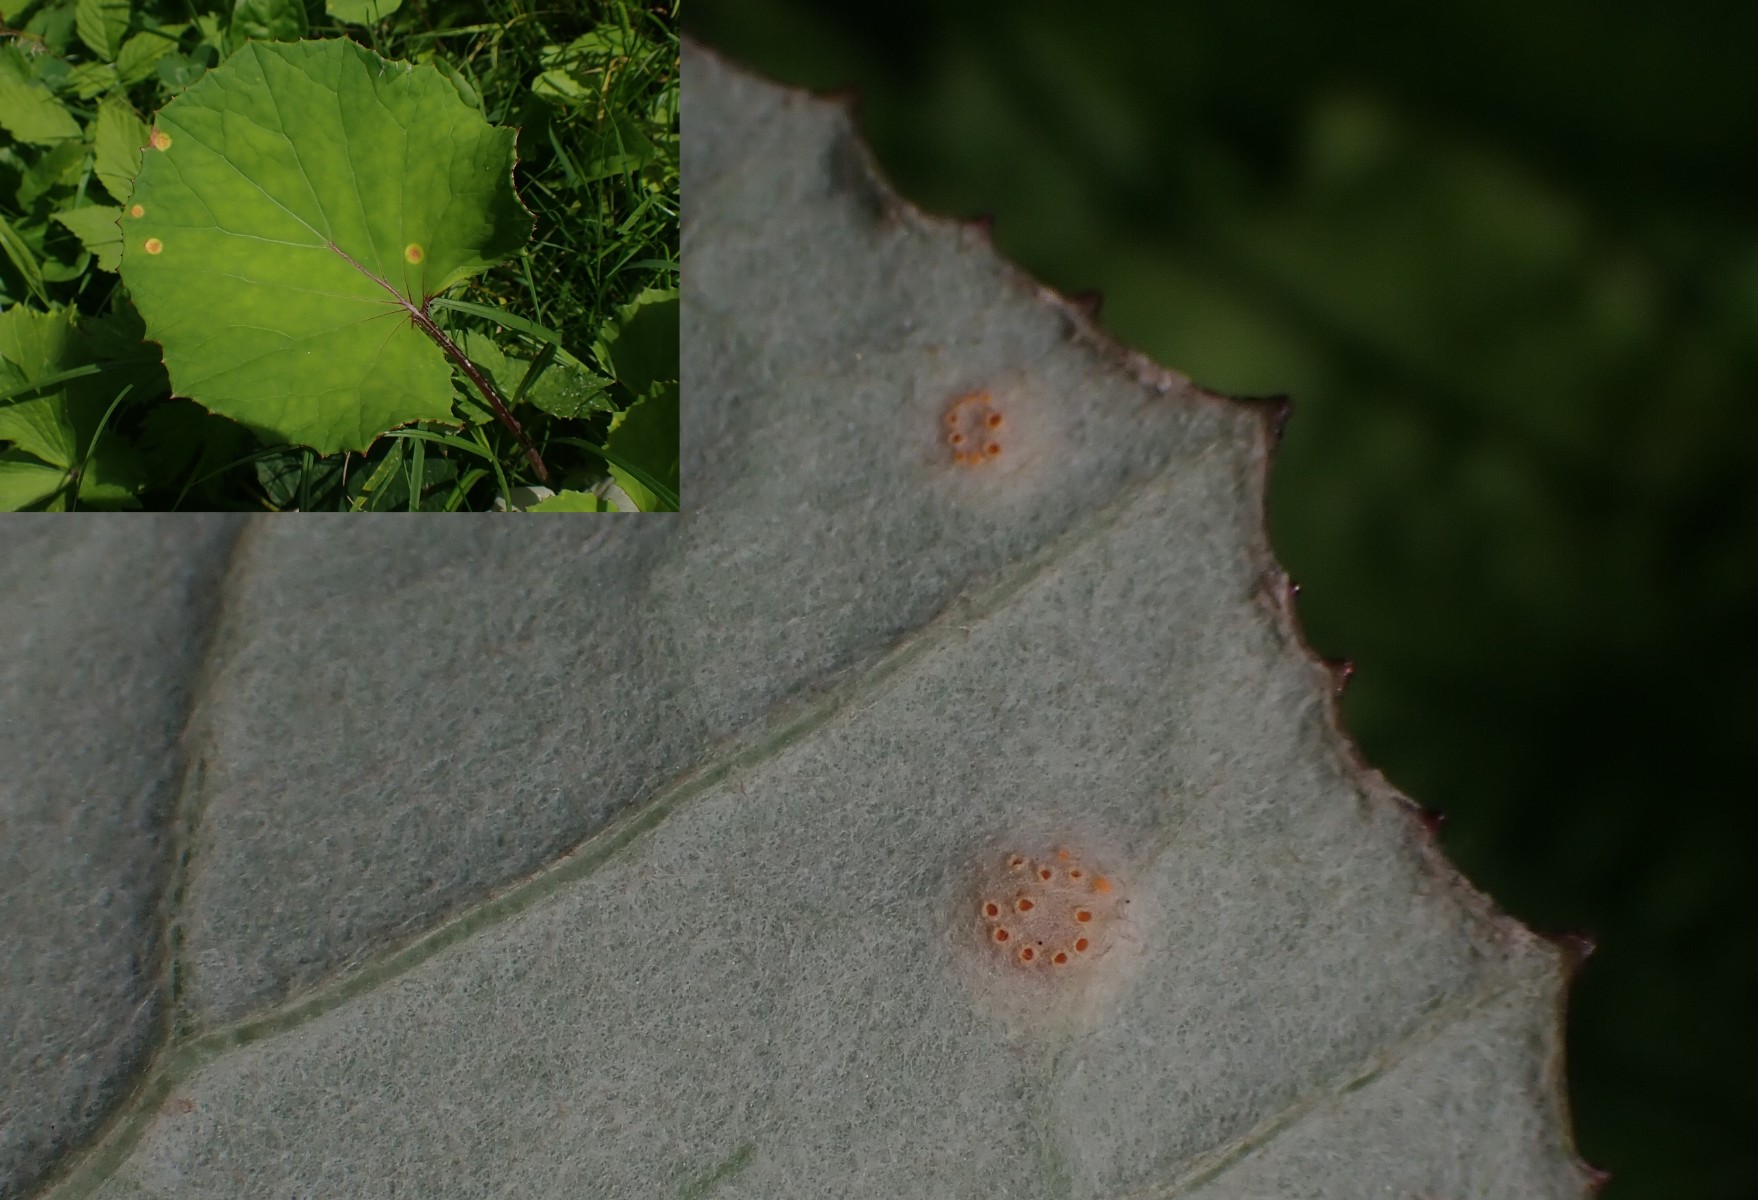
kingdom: Fungi
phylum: Basidiomycota
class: Pucciniomycetes
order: Pucciniales
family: Pucciniaceae
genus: Puccinia
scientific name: Puccinia poarum
